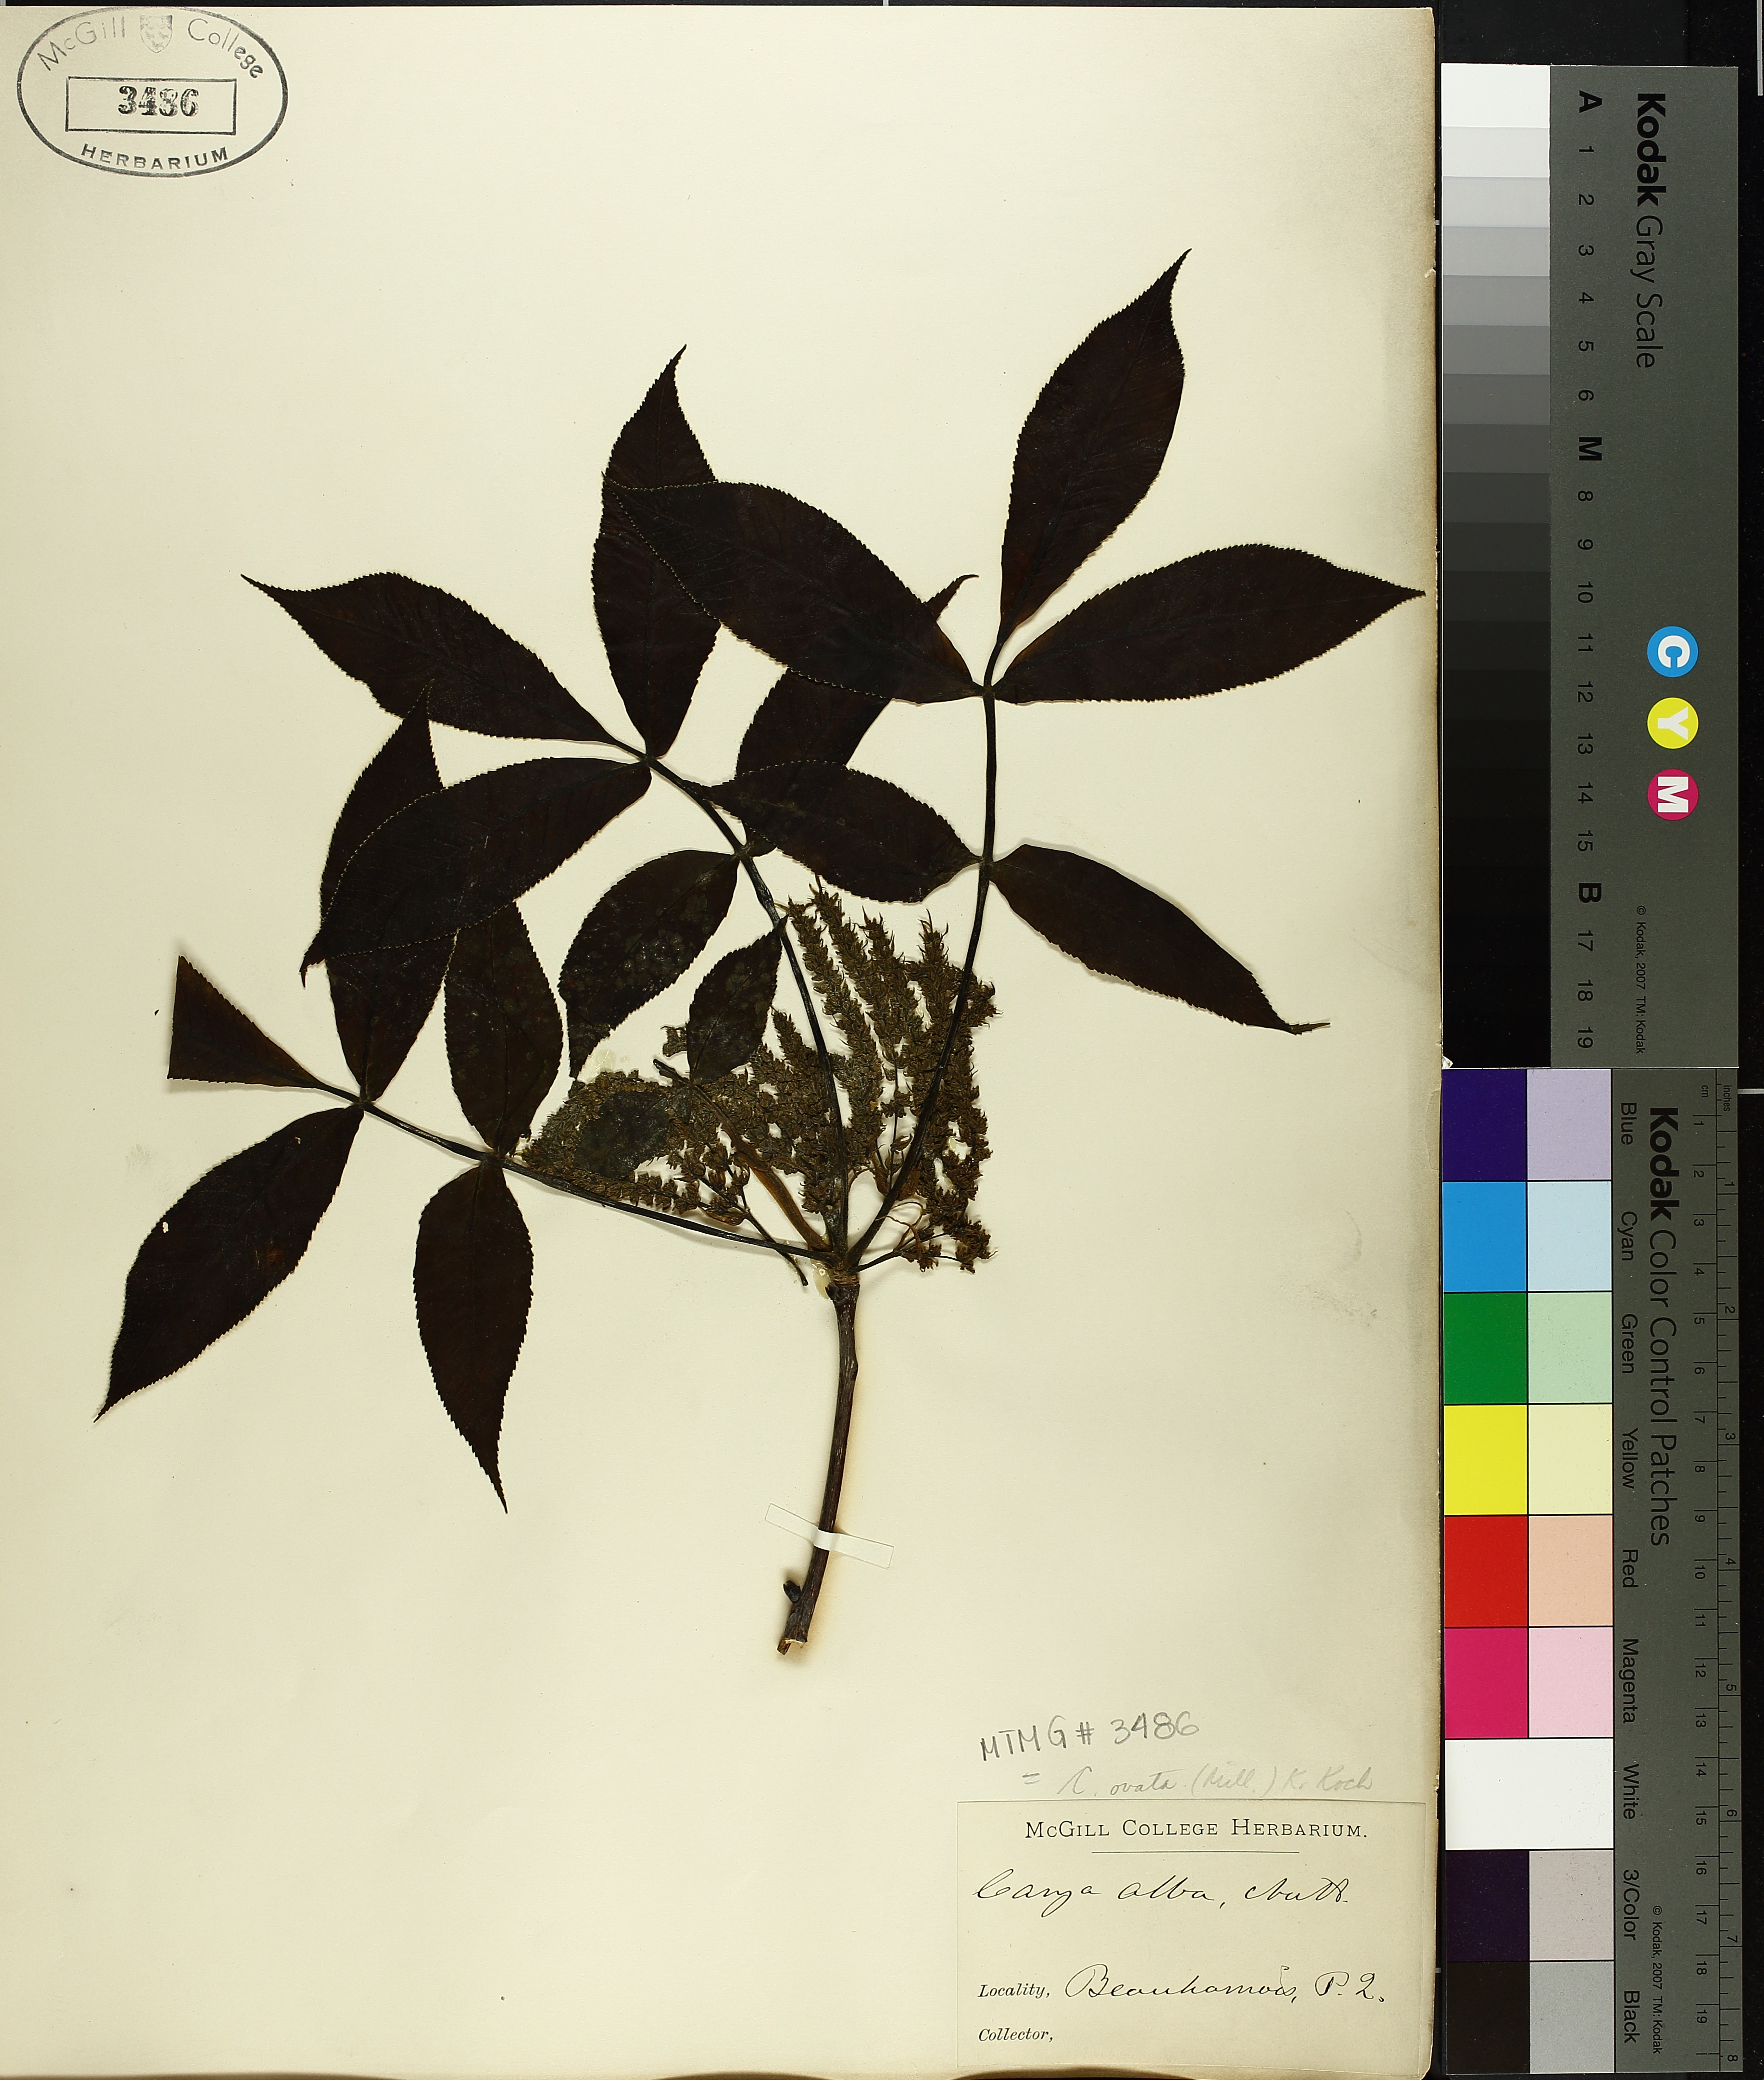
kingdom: Plantae
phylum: Tracheophyta
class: Magnoliopsida
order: Fagales
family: Juglandaceae
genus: Carya
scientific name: Carya ovata
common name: Shagbark hickory
